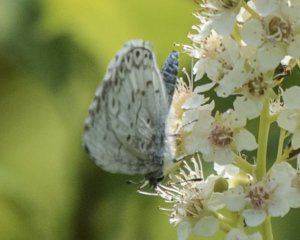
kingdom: Animalia
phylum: Arthropoda
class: Insecta
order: Lepidoptera
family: Lycaenidae
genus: Cyaniris
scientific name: Cyaniris neglecta
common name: Summer Azure
